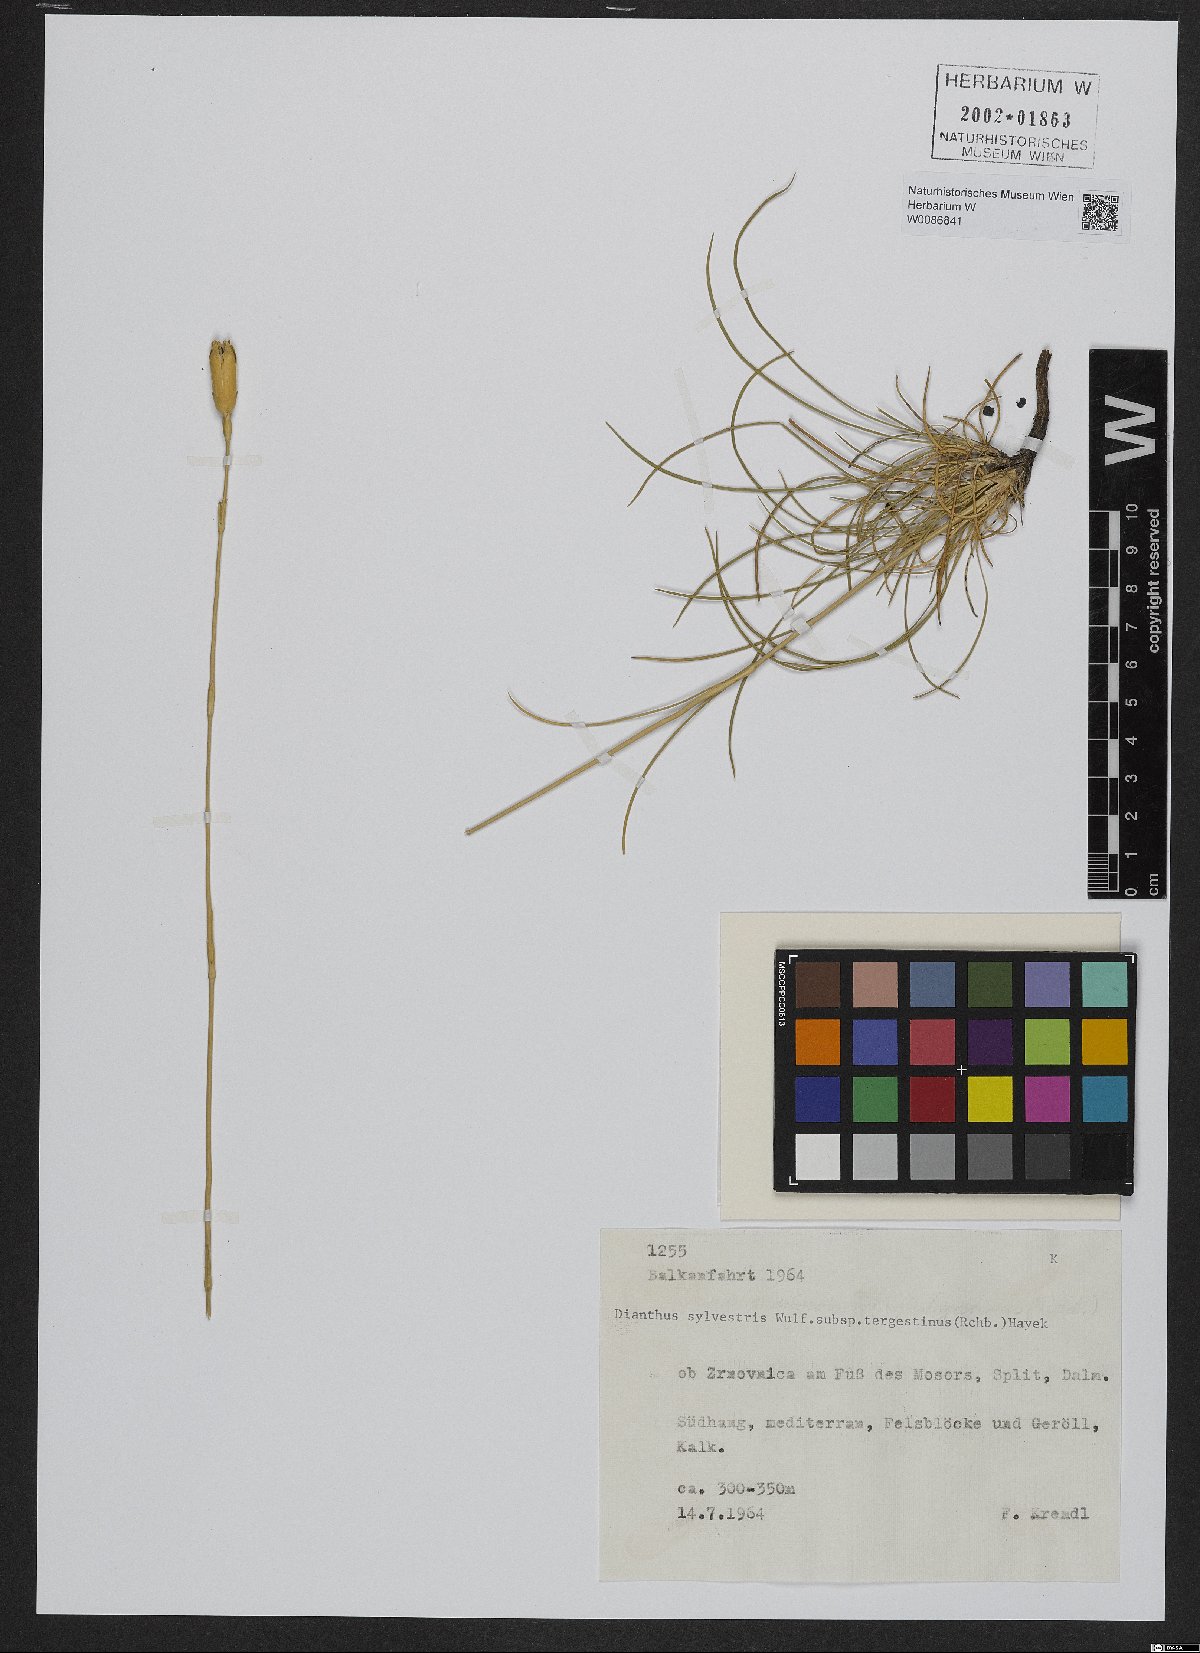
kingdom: Plantae
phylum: Tracheophyta
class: Magnoliopsida
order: Caryophyllales
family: Caryophyllaceae
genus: Dianthus
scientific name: Dianthus sylvestris
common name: Wood pink
